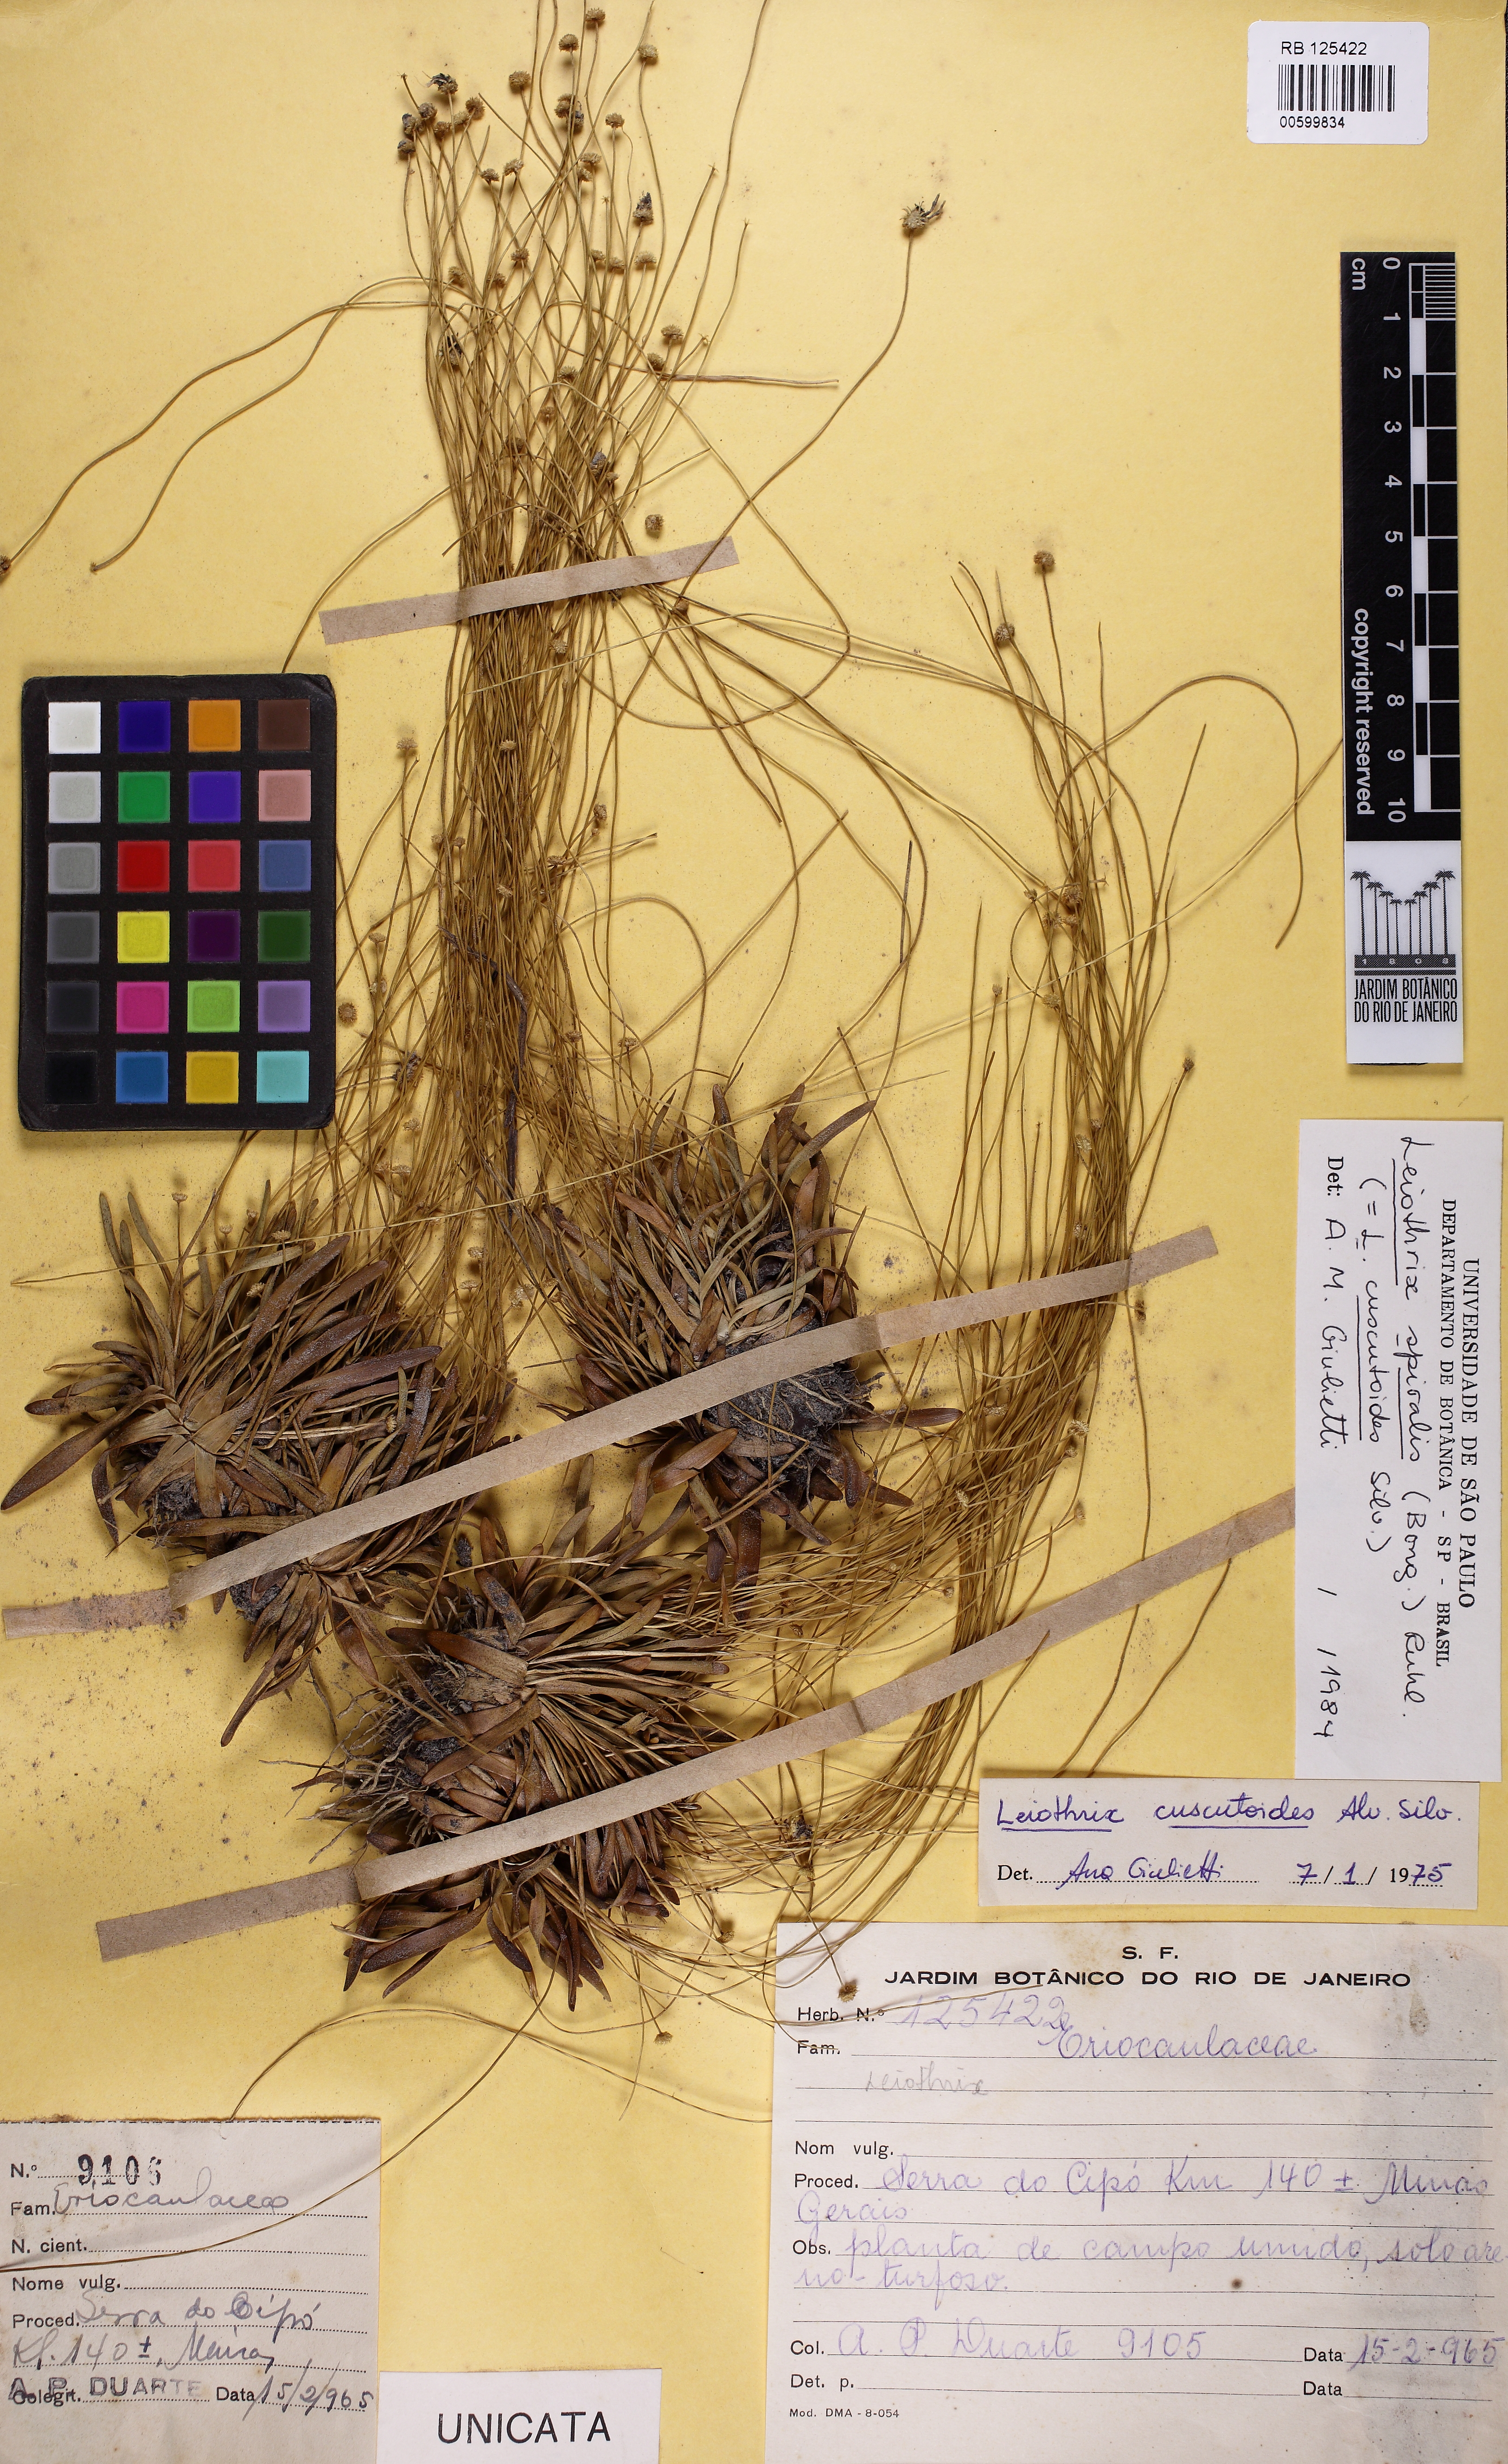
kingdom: Plantae
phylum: Tracheophyta
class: Liliopsida
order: Poales
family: Eriocaulaceae
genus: Leiothrix
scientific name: Leiothrix spiralis
